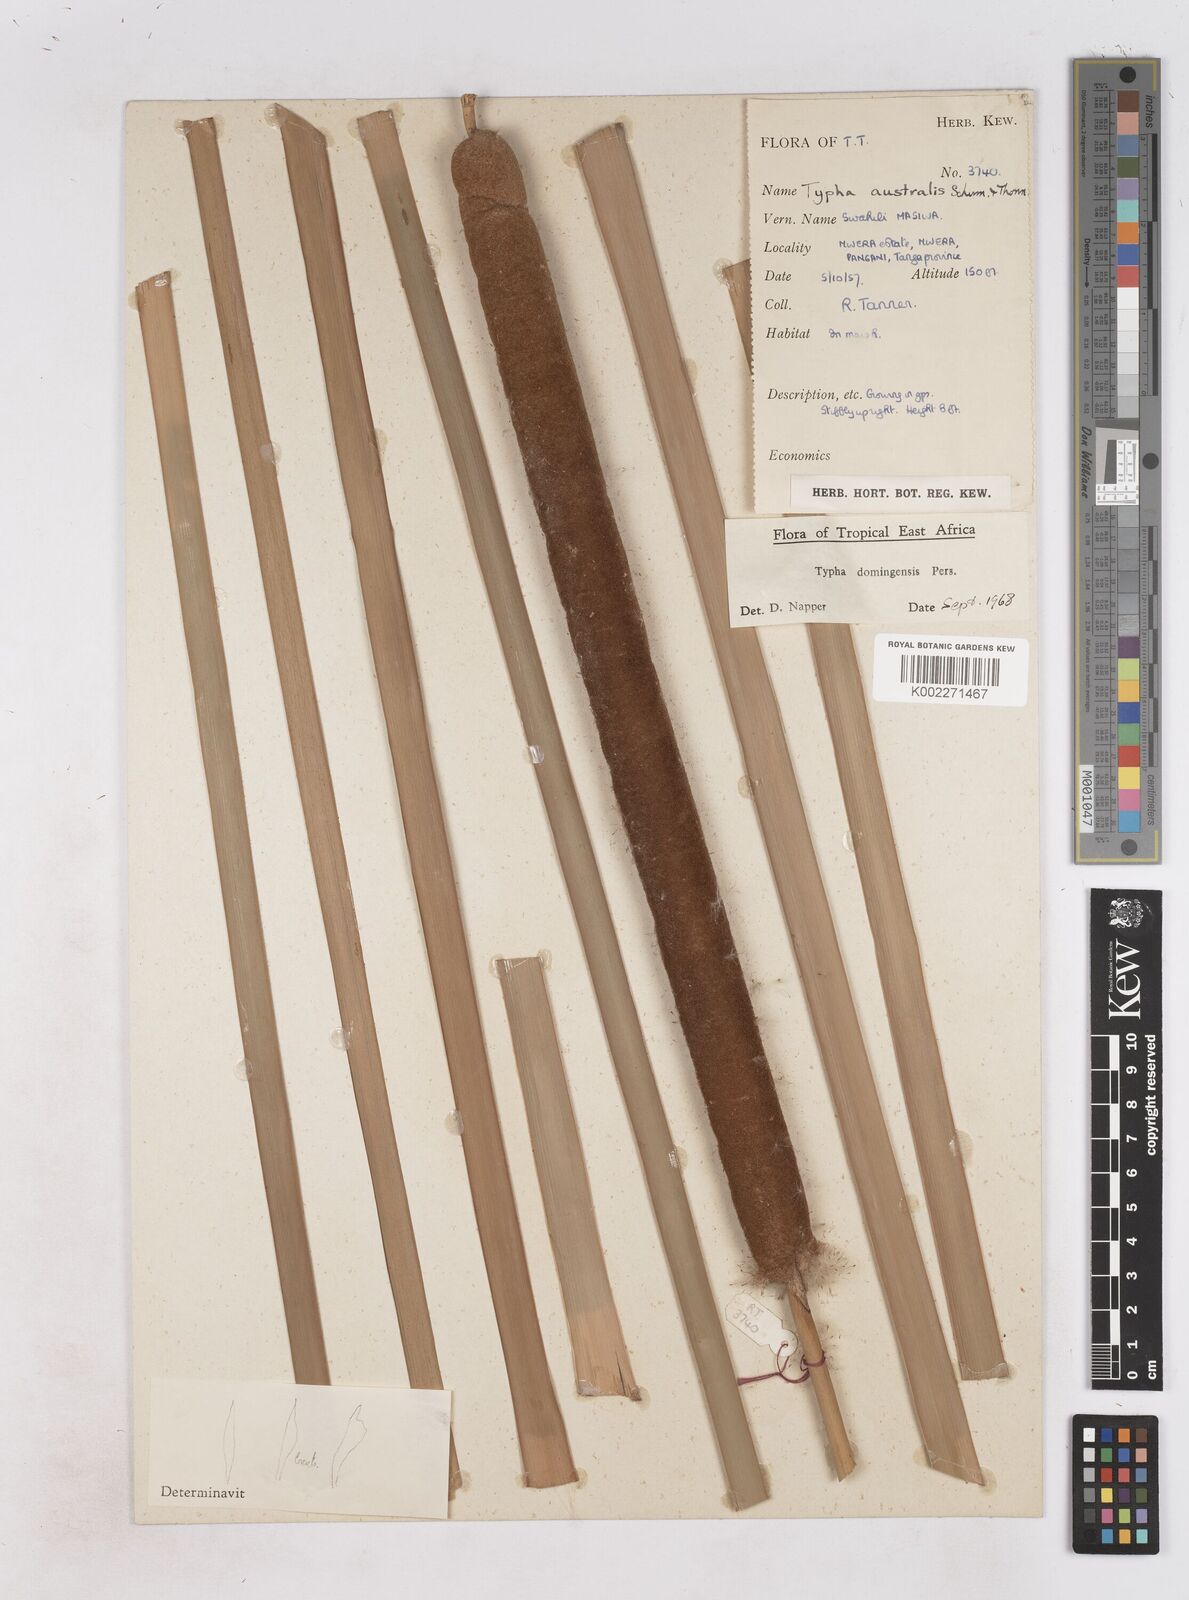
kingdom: Plantae
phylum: Tracheophyta
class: Liliopsida
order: Poales
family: Typhaceae
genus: Typha
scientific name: Typha domingensis
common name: Southern cattail
